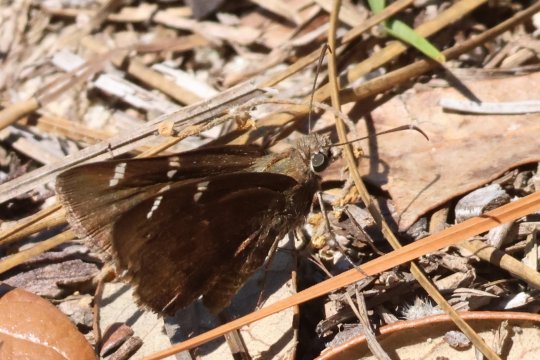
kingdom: Animalia
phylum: Arthropoda
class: Insecta
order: Lepidoptera
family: Hesperiidae
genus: Thorybes
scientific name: Thorybes mexicana
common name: Confused Cloudywing
